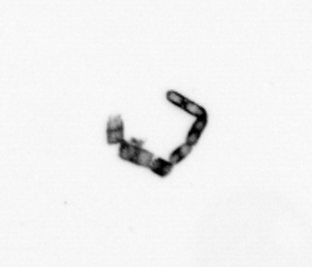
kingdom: Chromista
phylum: Ochrophyta
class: Bacillariophyceae
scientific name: Bacillariophyceae
